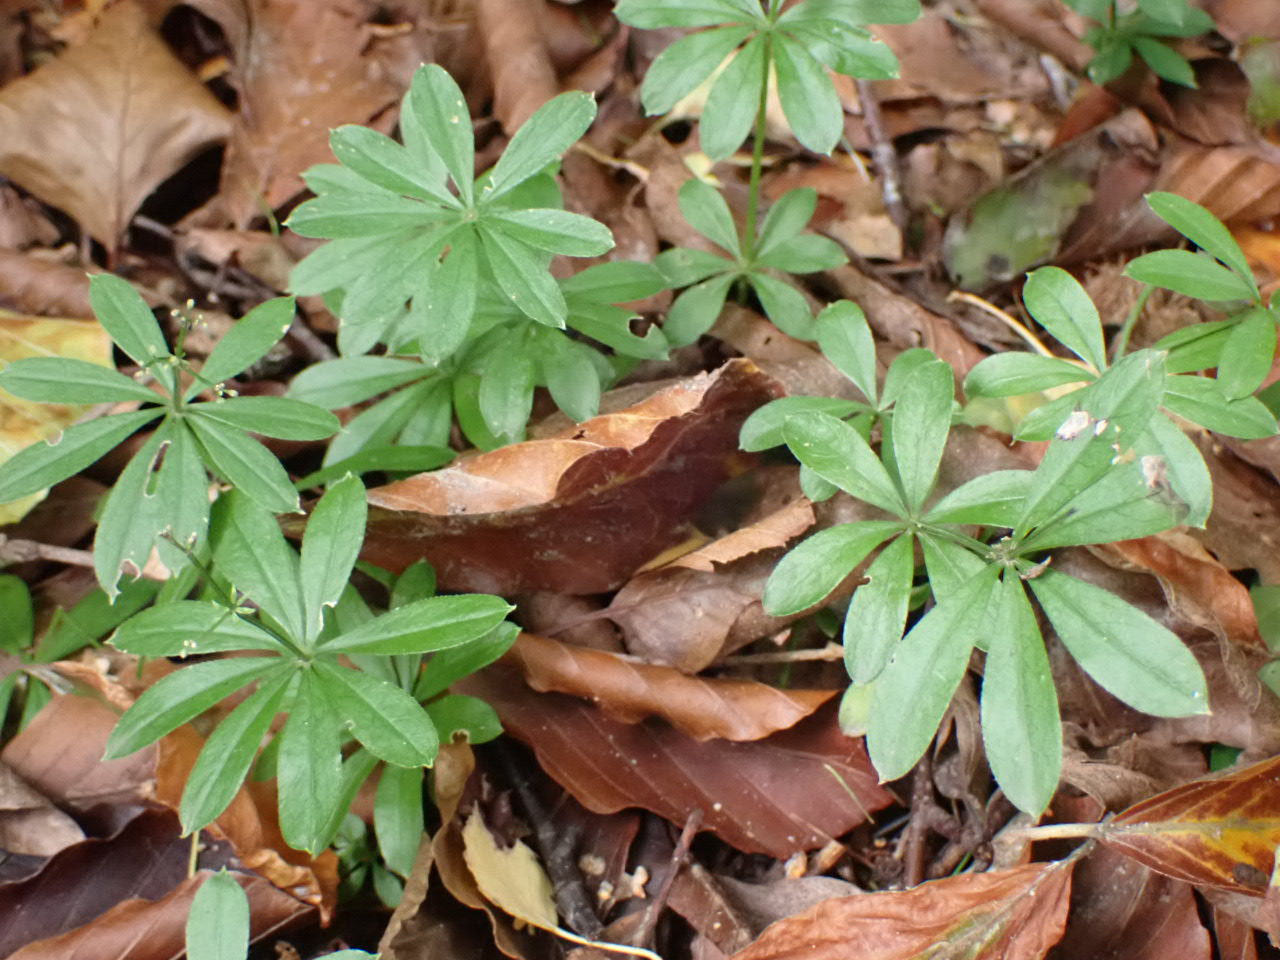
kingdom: Plantae
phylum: Tracheophyta
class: Magnoliopsida
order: Gentianales
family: Rubiaceae
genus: Galium
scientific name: Galium odoratum
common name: Skovmærke
